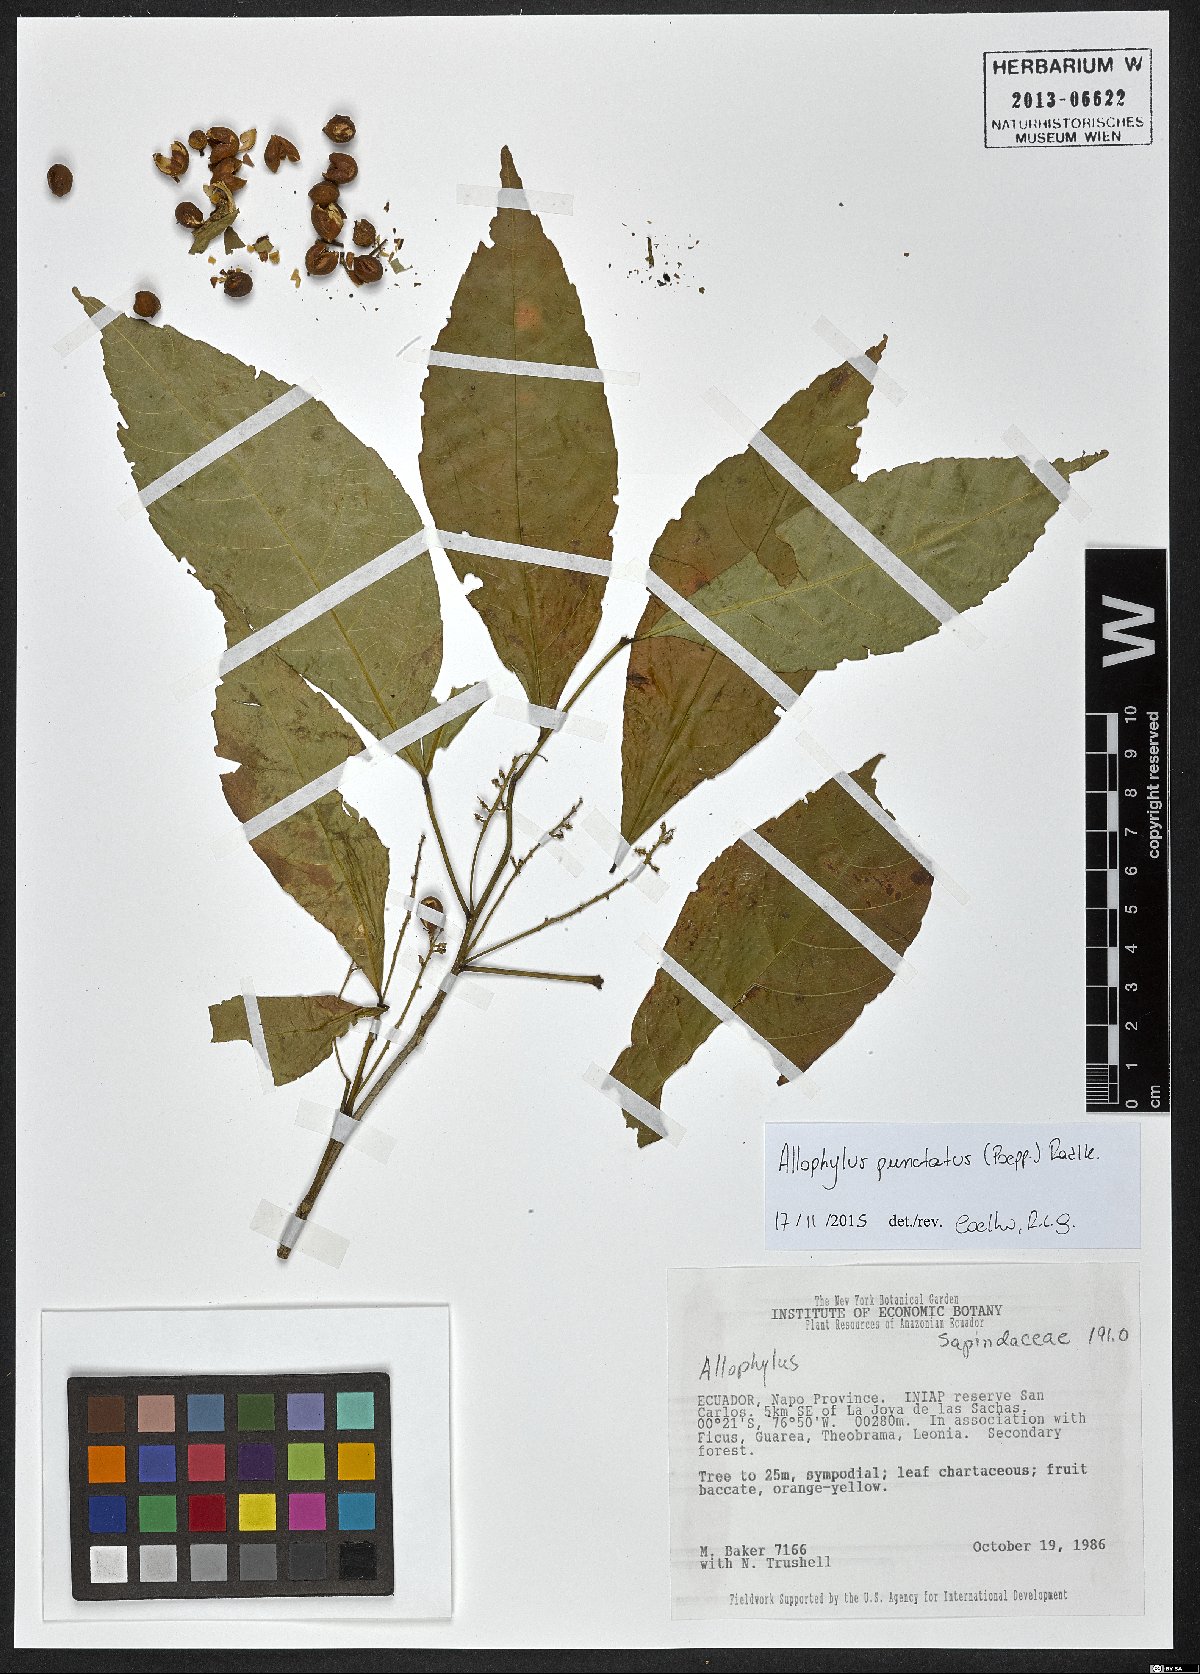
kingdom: Plantae
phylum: Tracheophyta
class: Magnoliopsida
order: Sapindales
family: Sapindaceae
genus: Allophylus
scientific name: Allophylus punctatus
